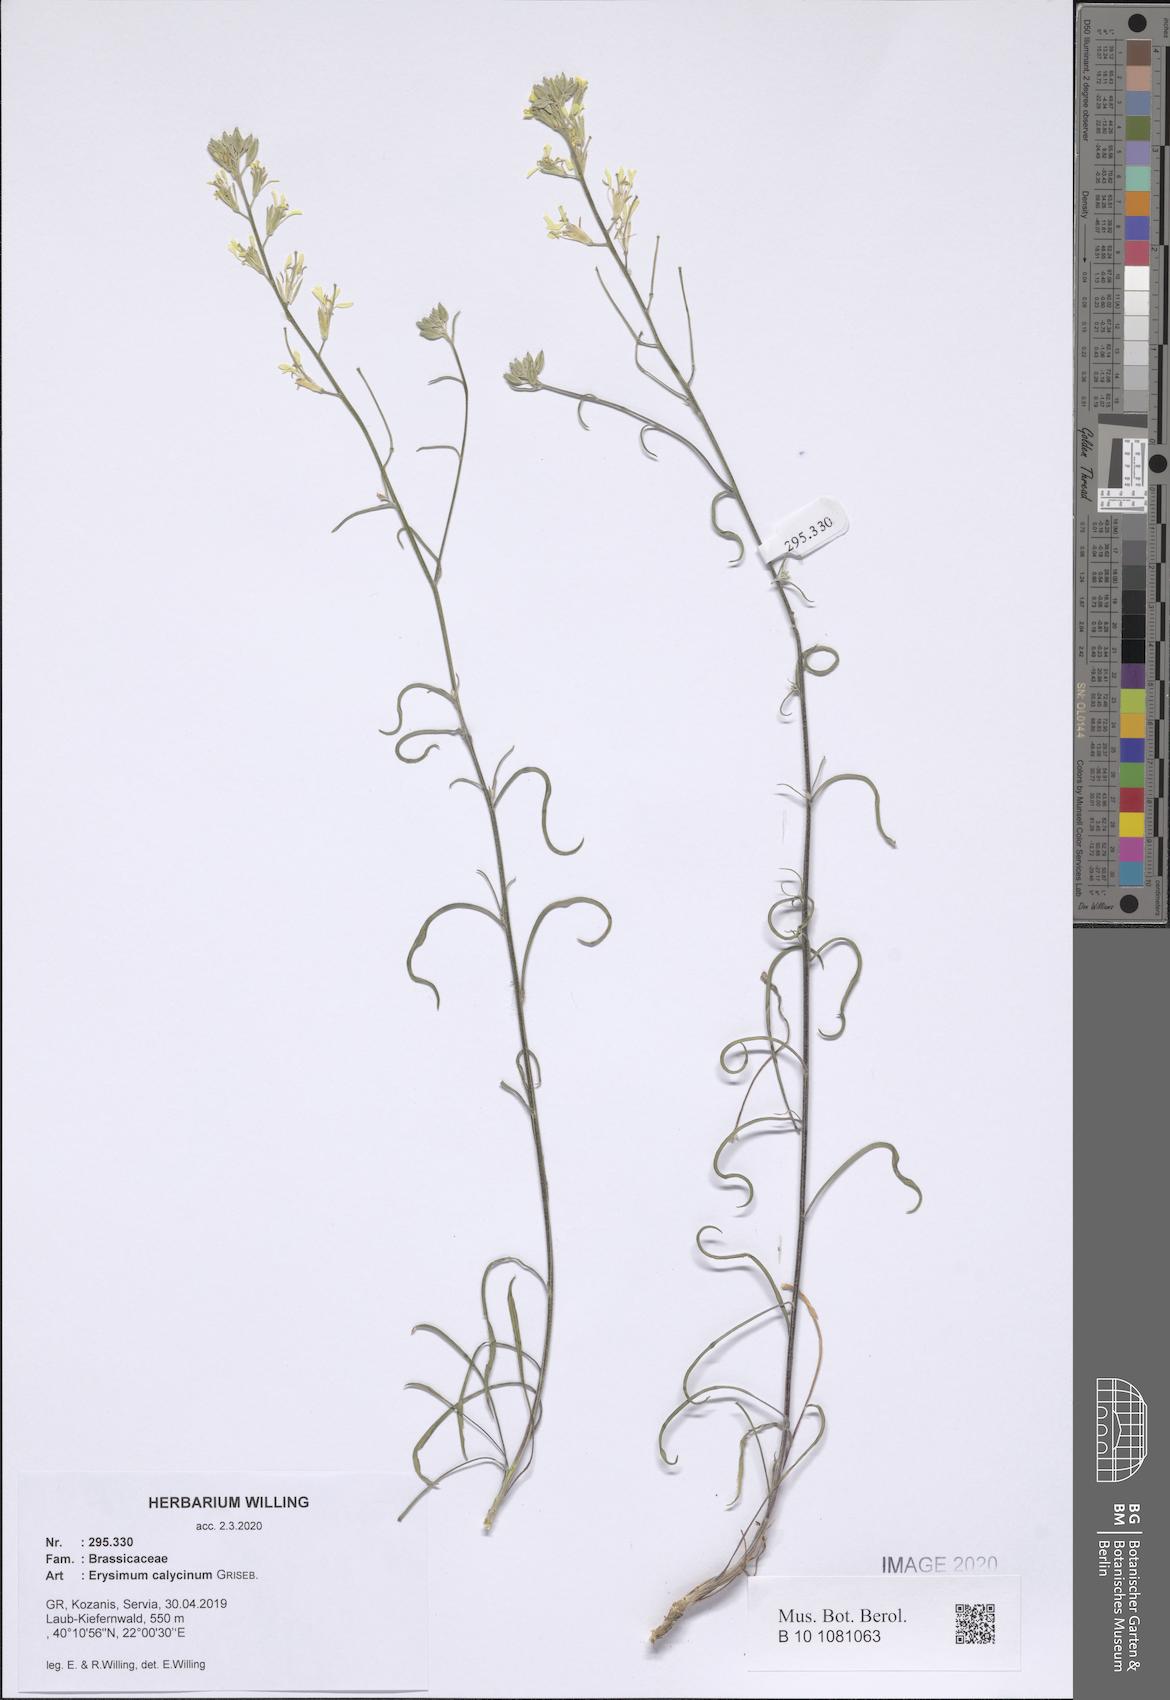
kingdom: Plantae
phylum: Tracheophyta
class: Magnoliopsida
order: Brassicales
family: Brassicaceae
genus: Erysimum
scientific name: Erysimum calycinum
